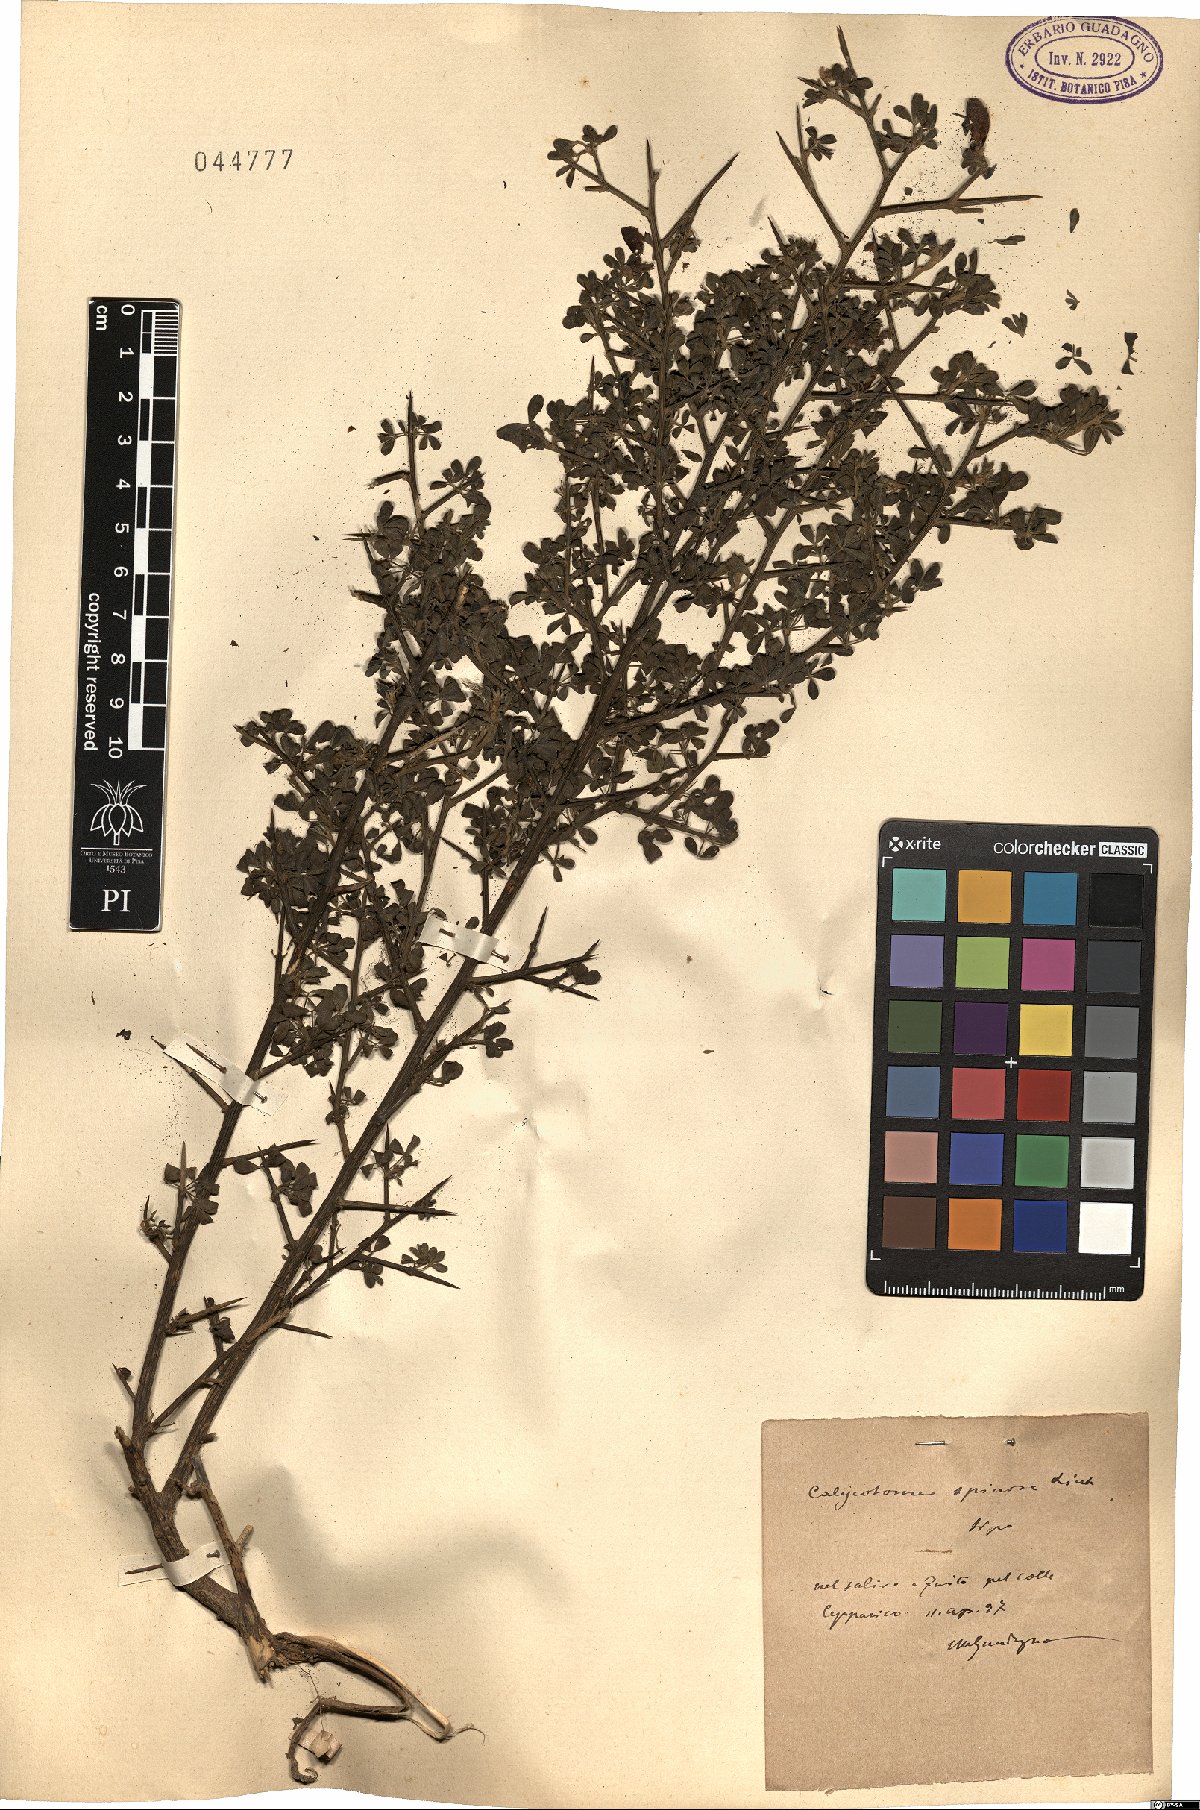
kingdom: Plantae
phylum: Tracheophyta
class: Magnoliopsida
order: Fabales
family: Fabaceae
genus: Calicotome
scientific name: Calicotome spinosa
